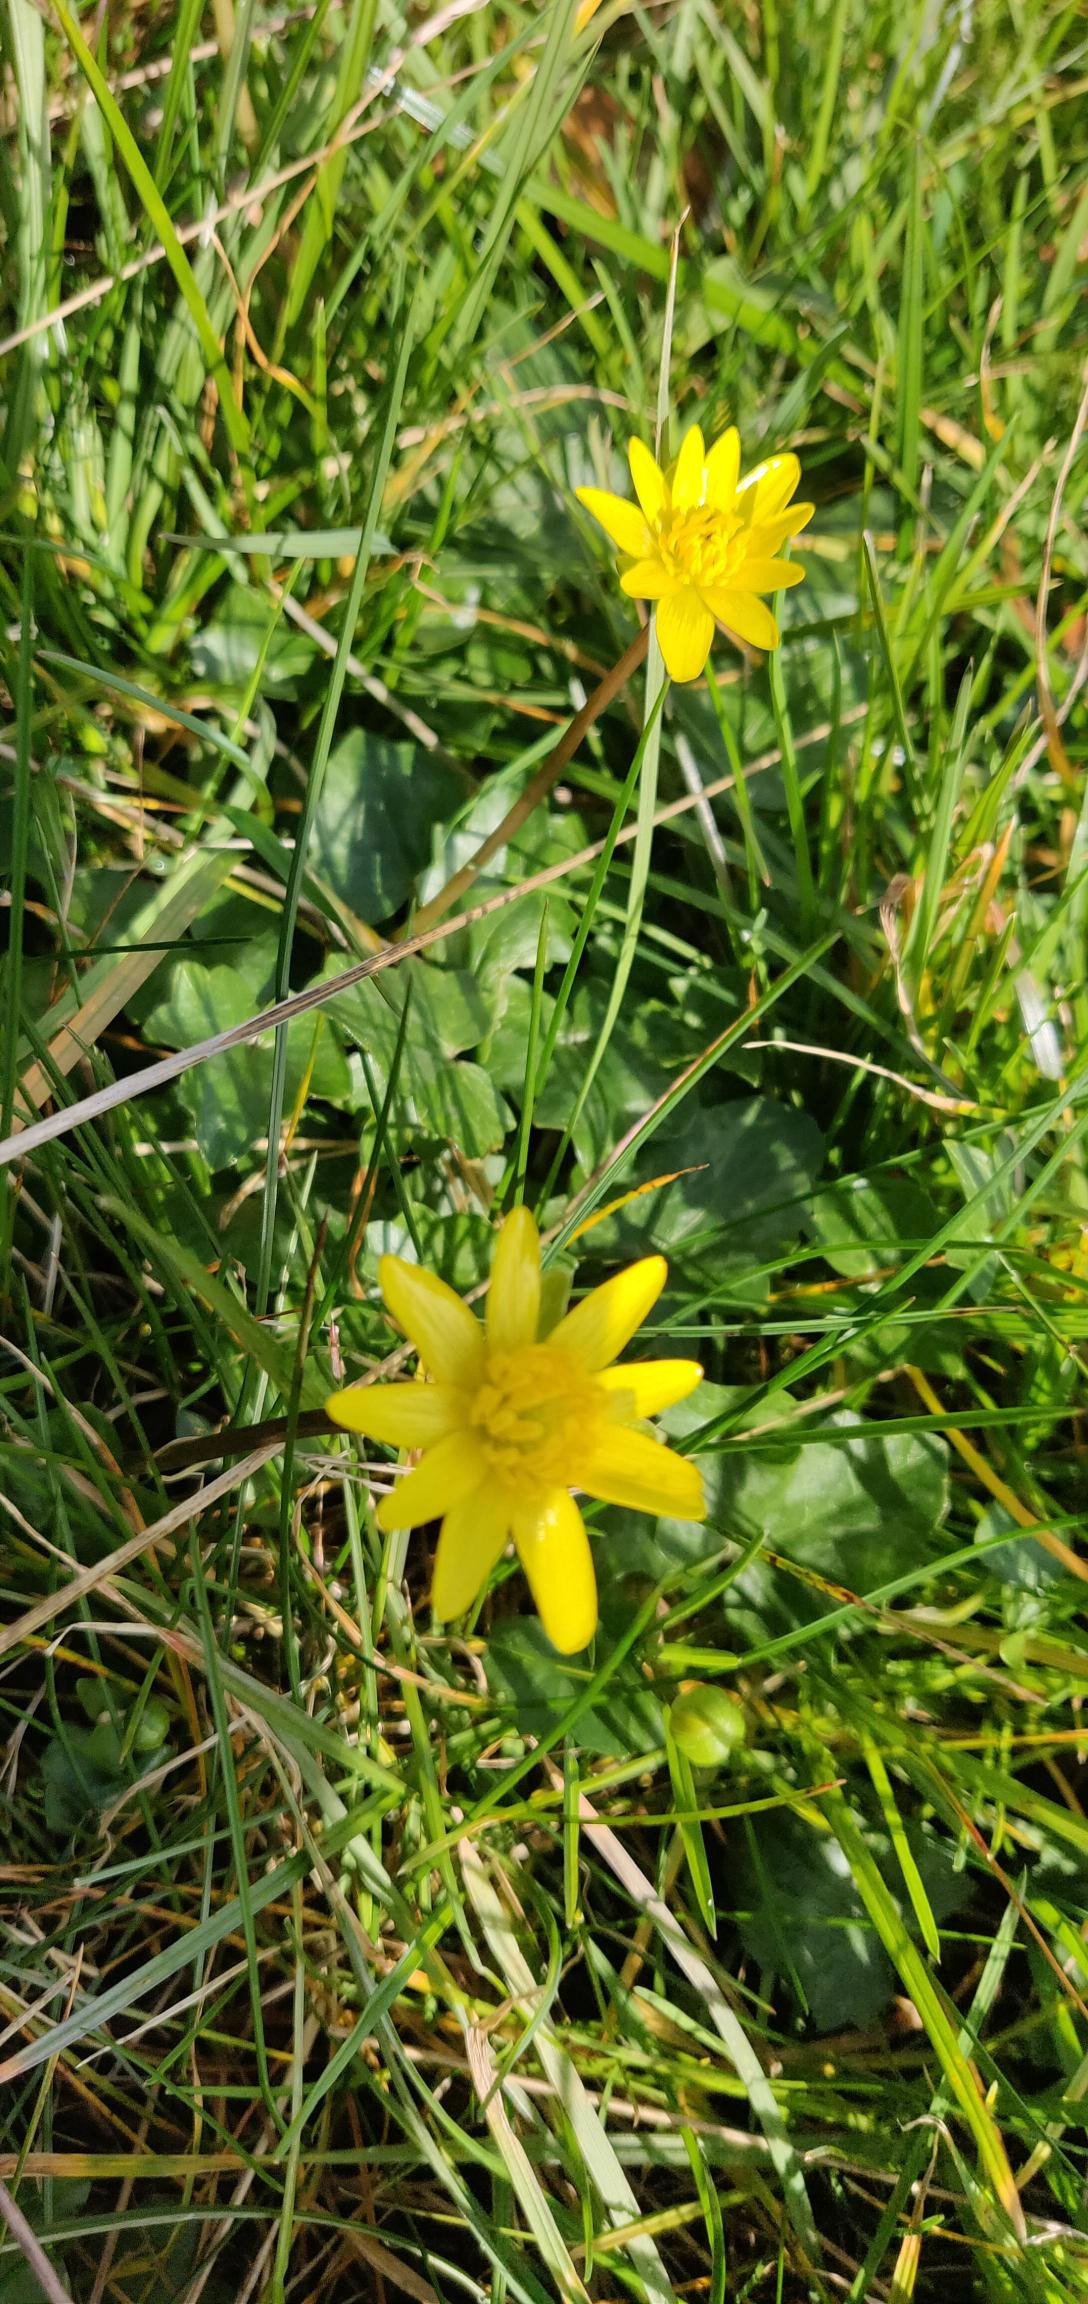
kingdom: Plantae
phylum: Tracheophyta
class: Magnoliopsida
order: Ranunculales
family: Ranunculaceae
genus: Ficaria
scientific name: Ficaria verna
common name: Vorterod
